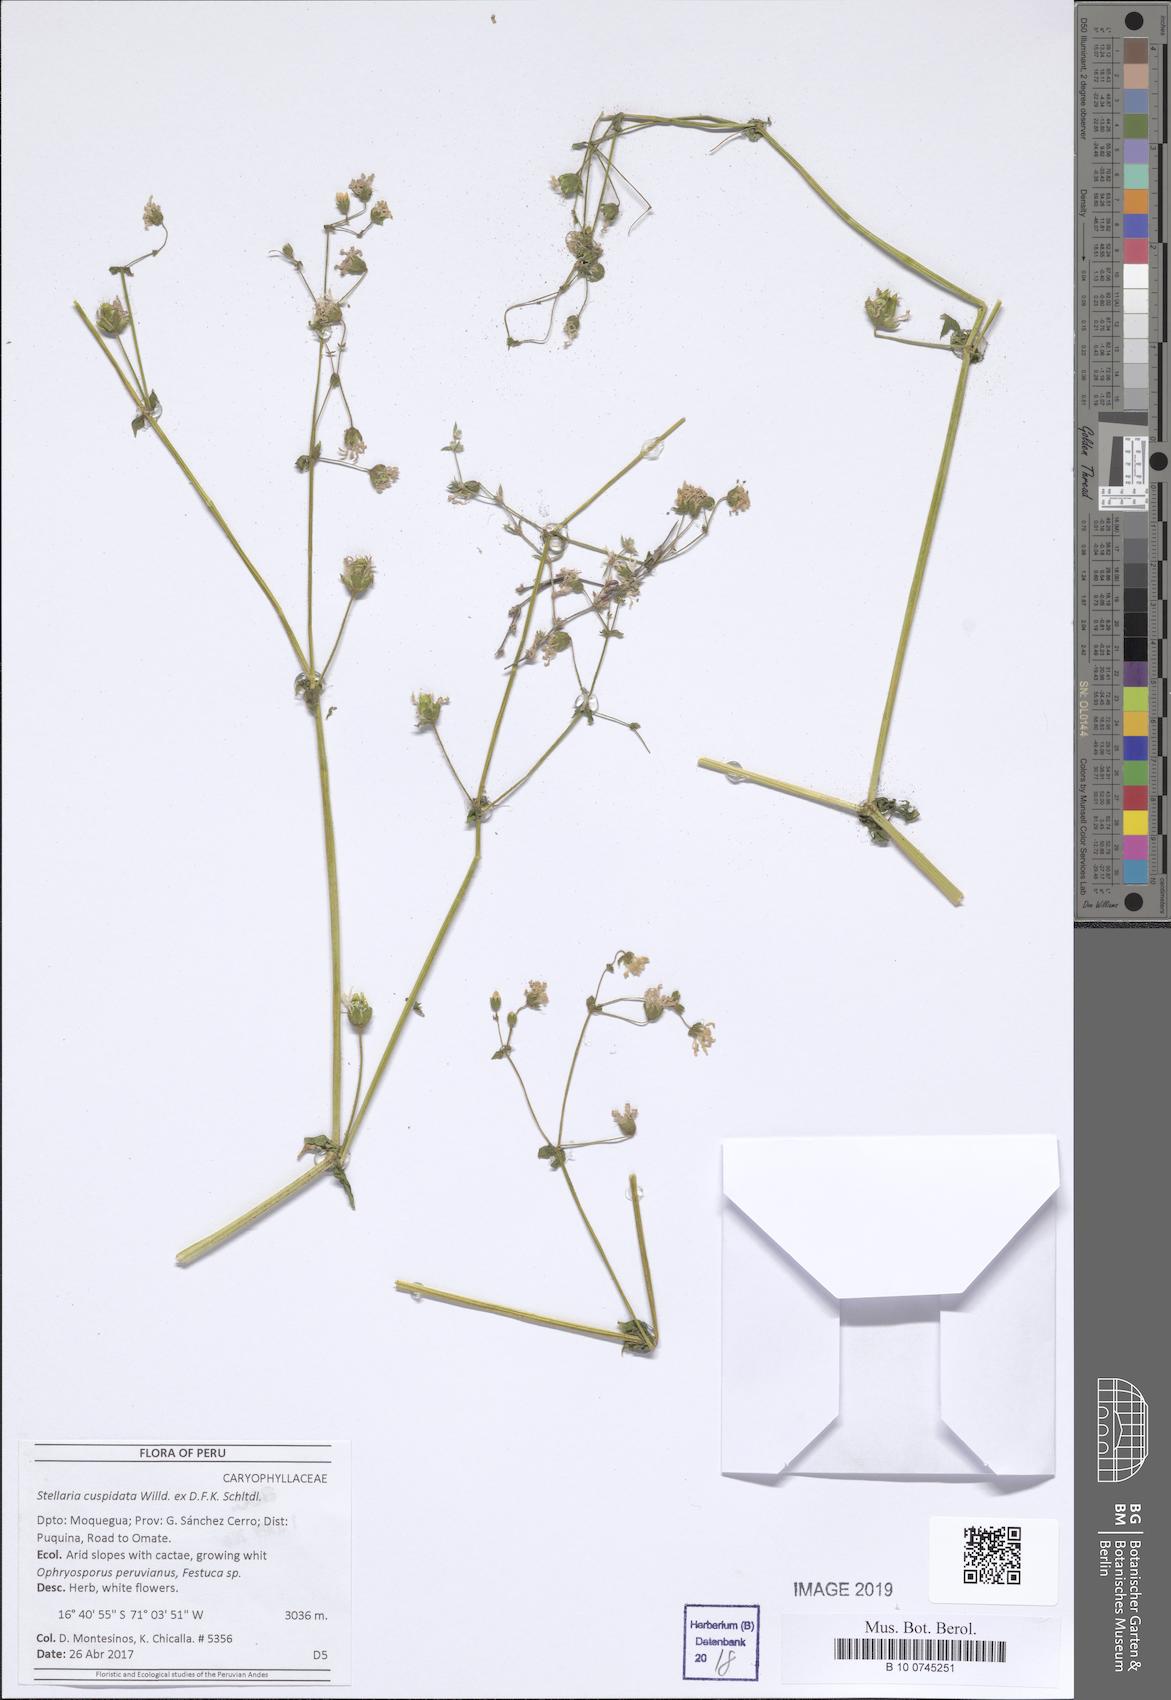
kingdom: Plantae
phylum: Tracheophyta
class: Magnoliopsida
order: Caryophyllales
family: Caryophyllaceae
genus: Stellaria
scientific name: Stellaria cuspidata
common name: Mexican chickweed
